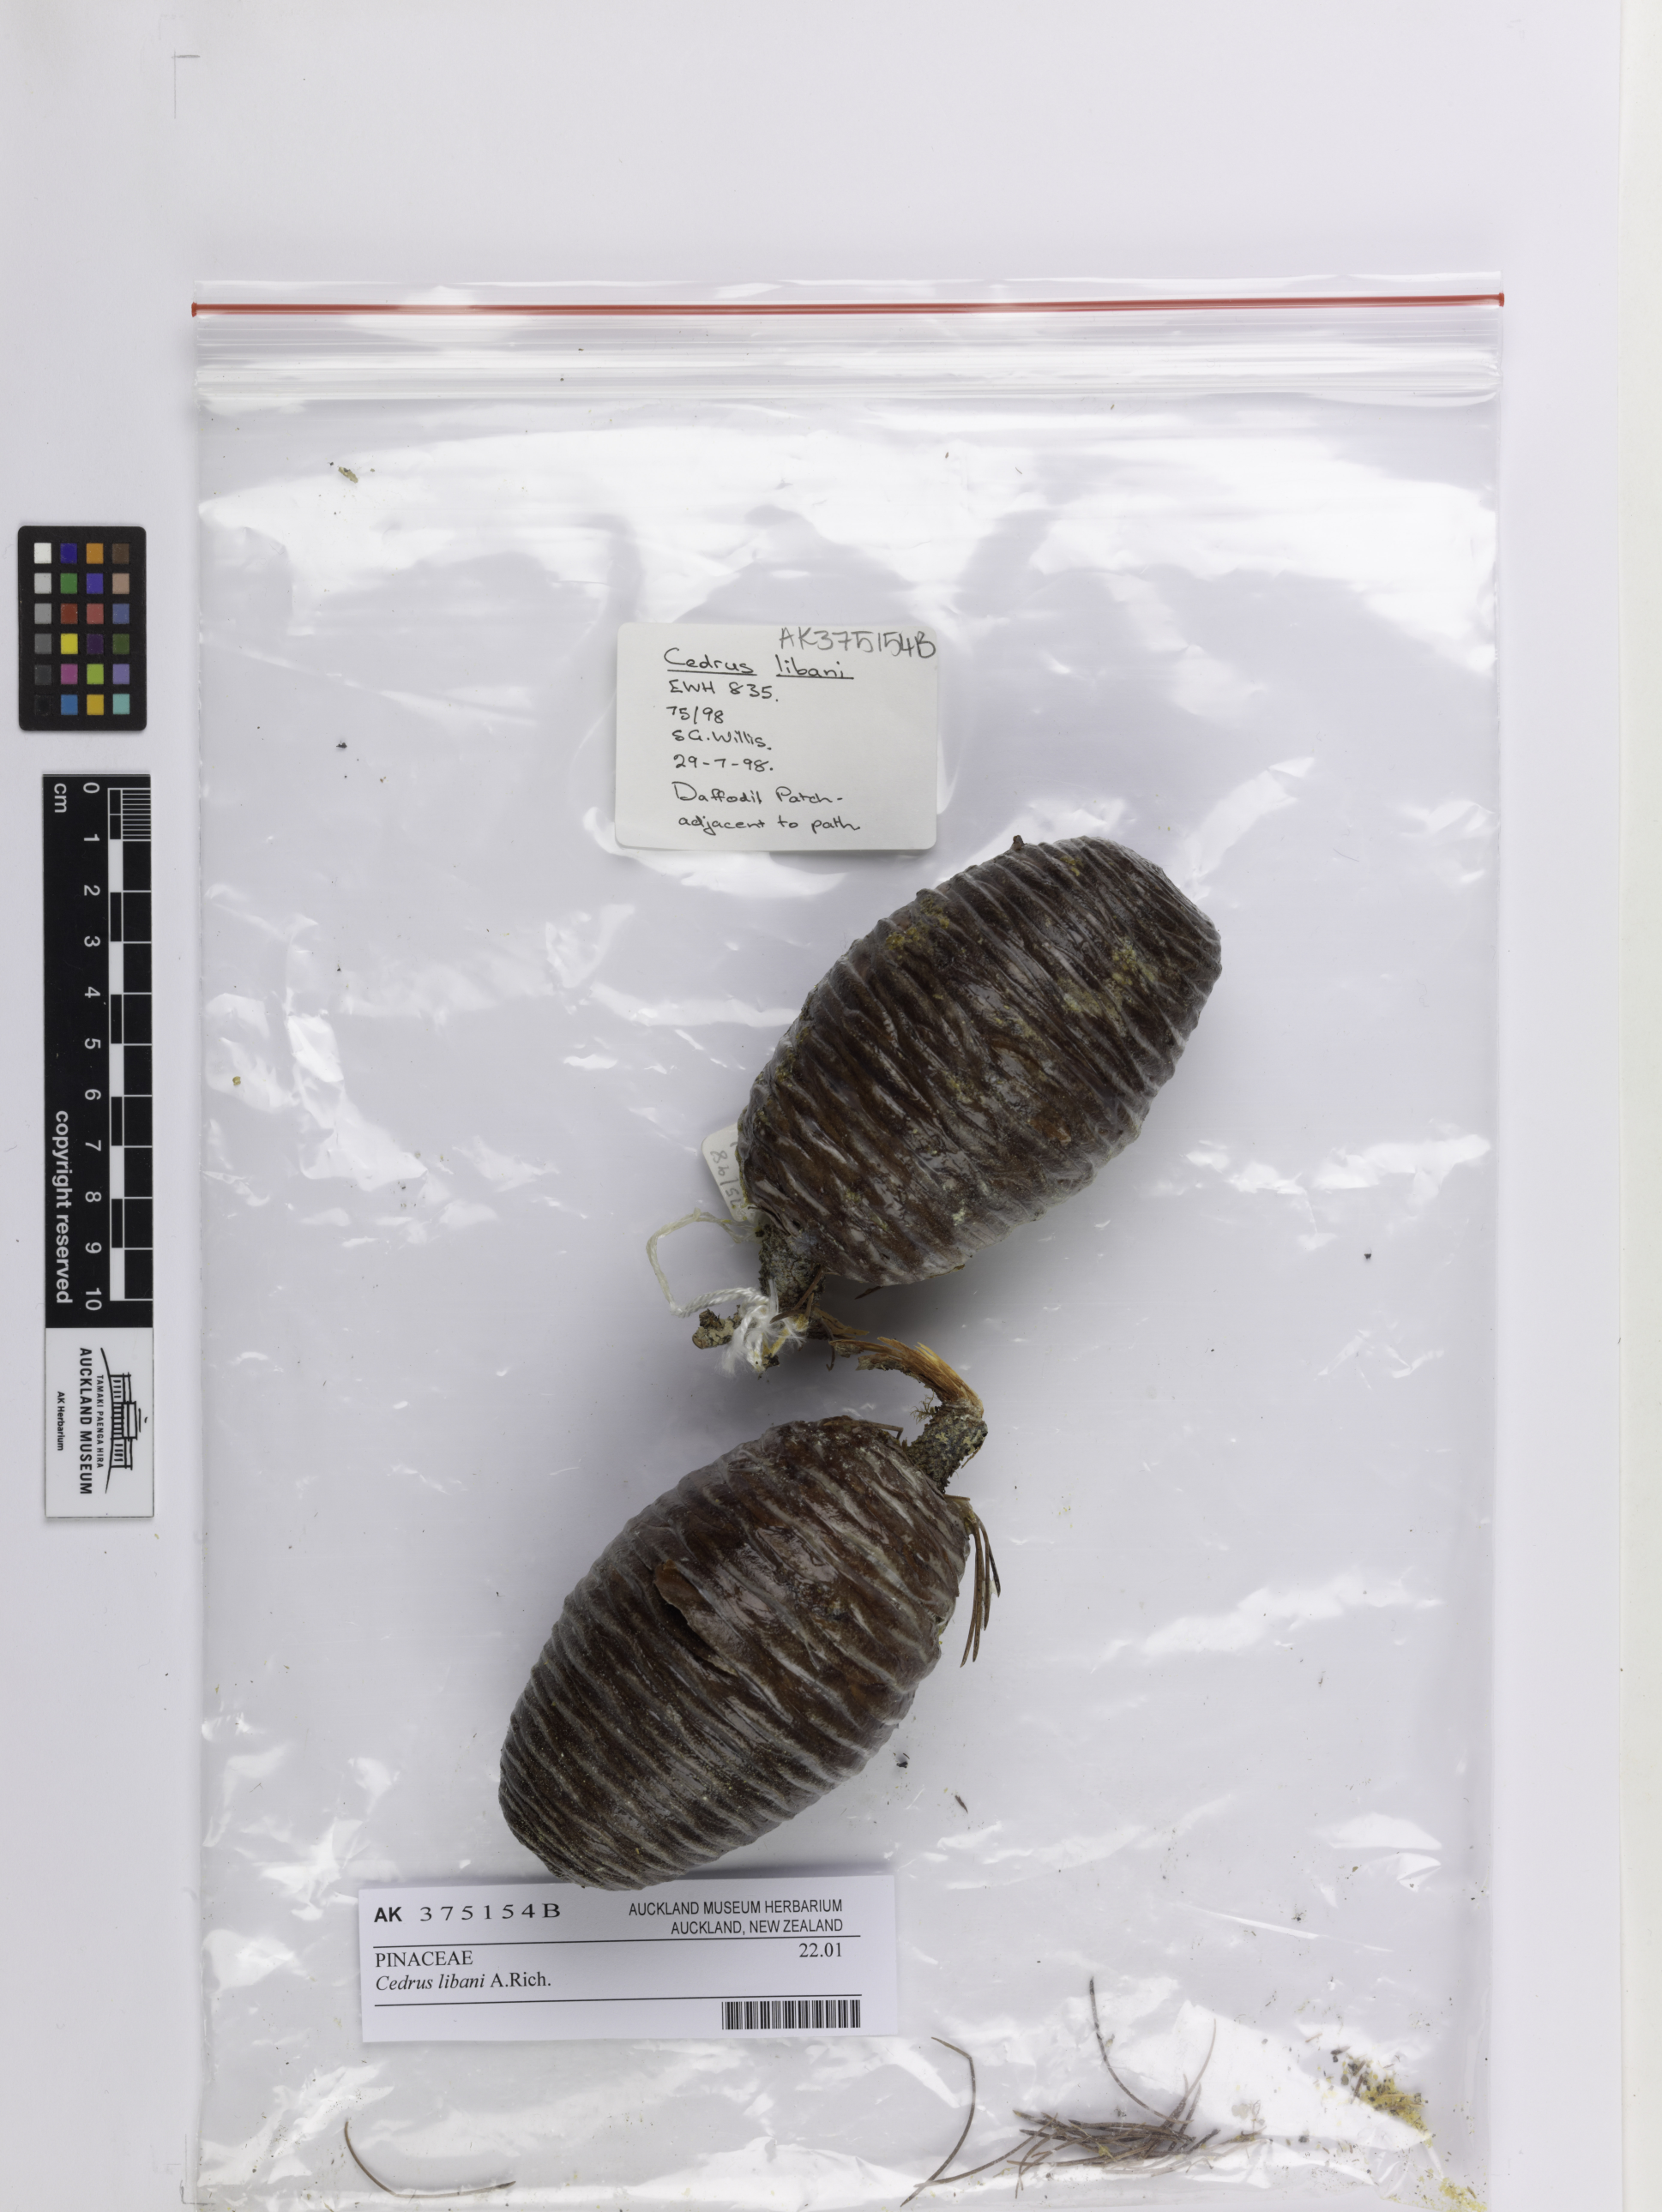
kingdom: Plantae
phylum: Tracheophyta
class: Pinopsida
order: Pinales
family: Pinaceae
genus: Cedrus
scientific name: Cedrus libani
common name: Cedar-of-lebanon
